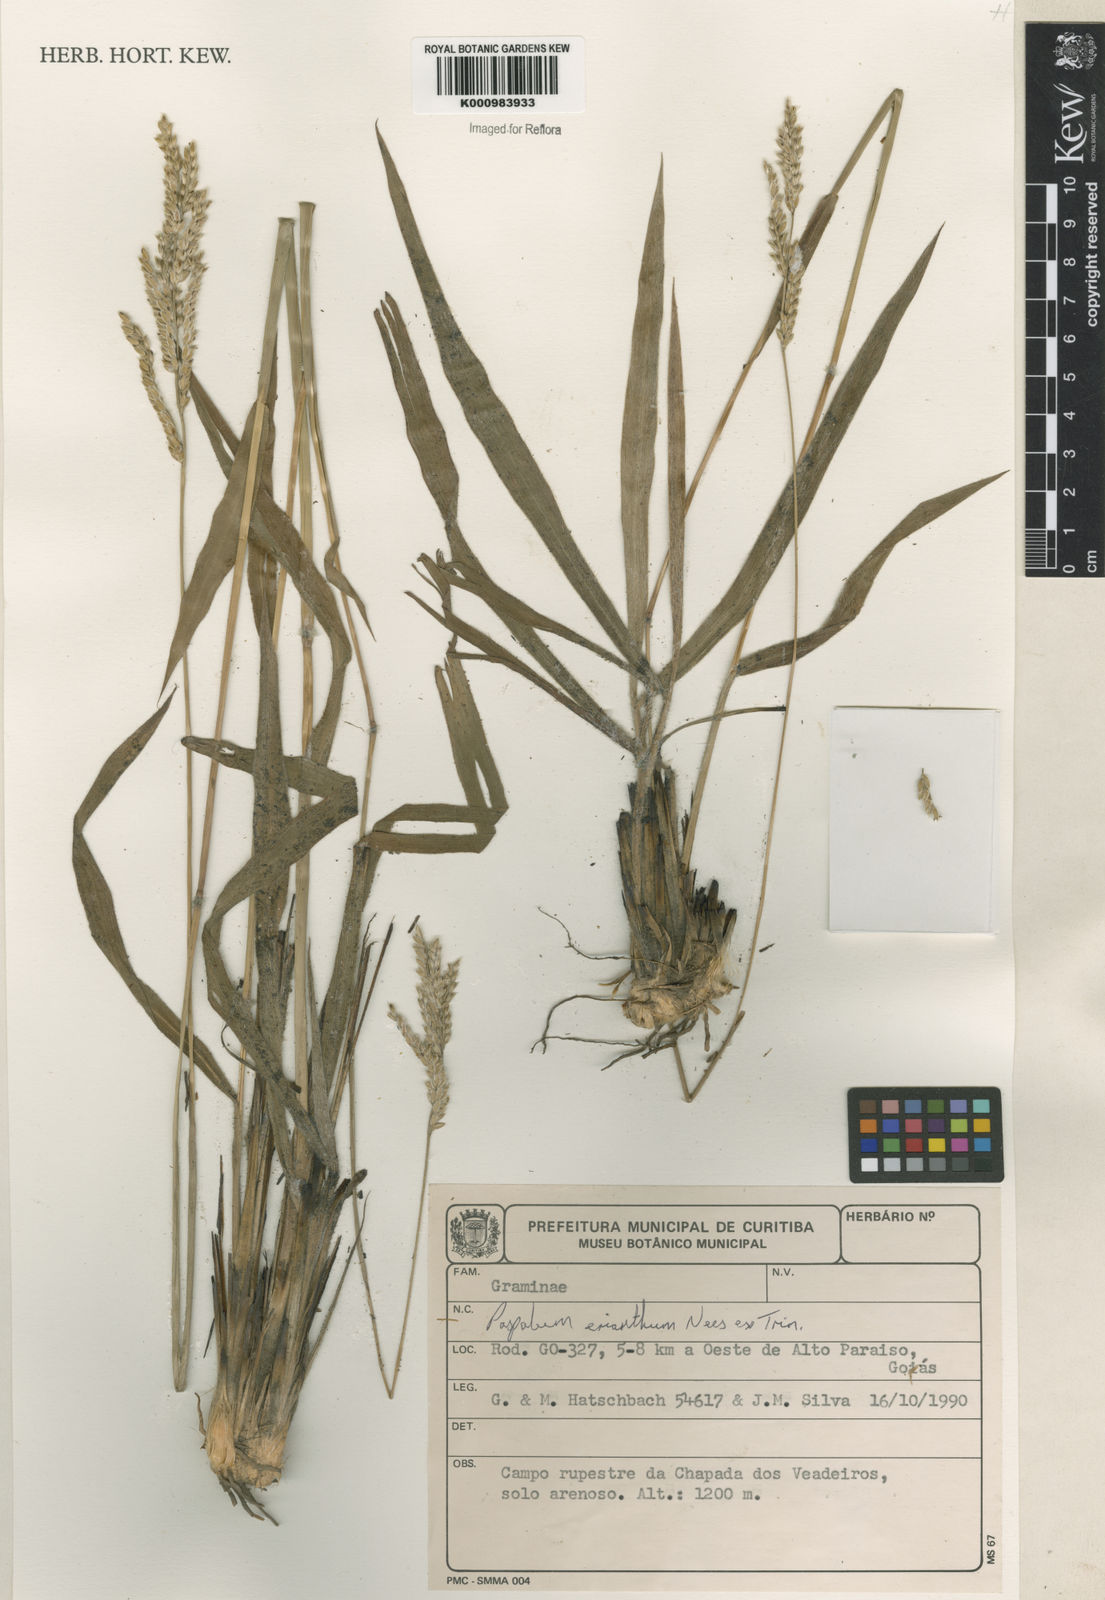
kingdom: Plantae
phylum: Tracheophyta
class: Liliopsida
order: Poales
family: Poaceae
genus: Paspalum
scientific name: Paspalum erianthum
